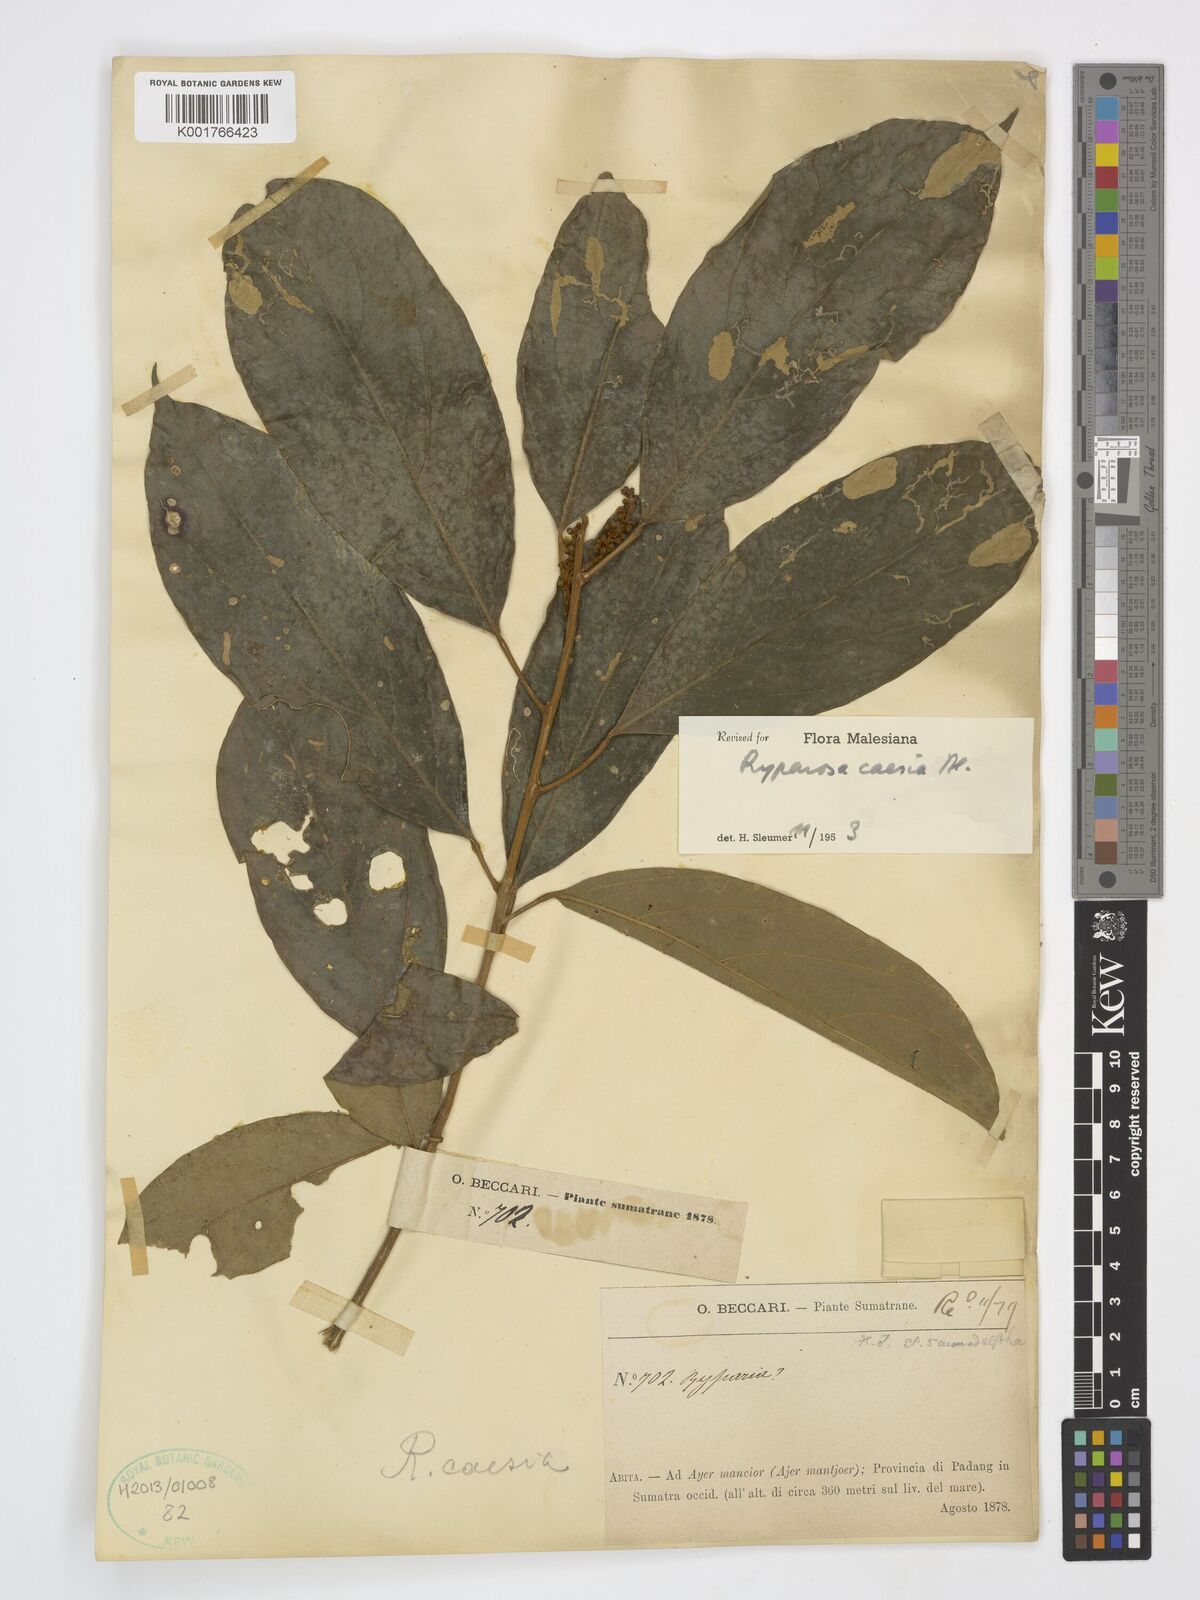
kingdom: Plantae
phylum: Tracheophyta
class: Magnoliopsida
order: Malpighiales
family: Achariaceae
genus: Ryparosa
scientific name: Ryparosa caesia
